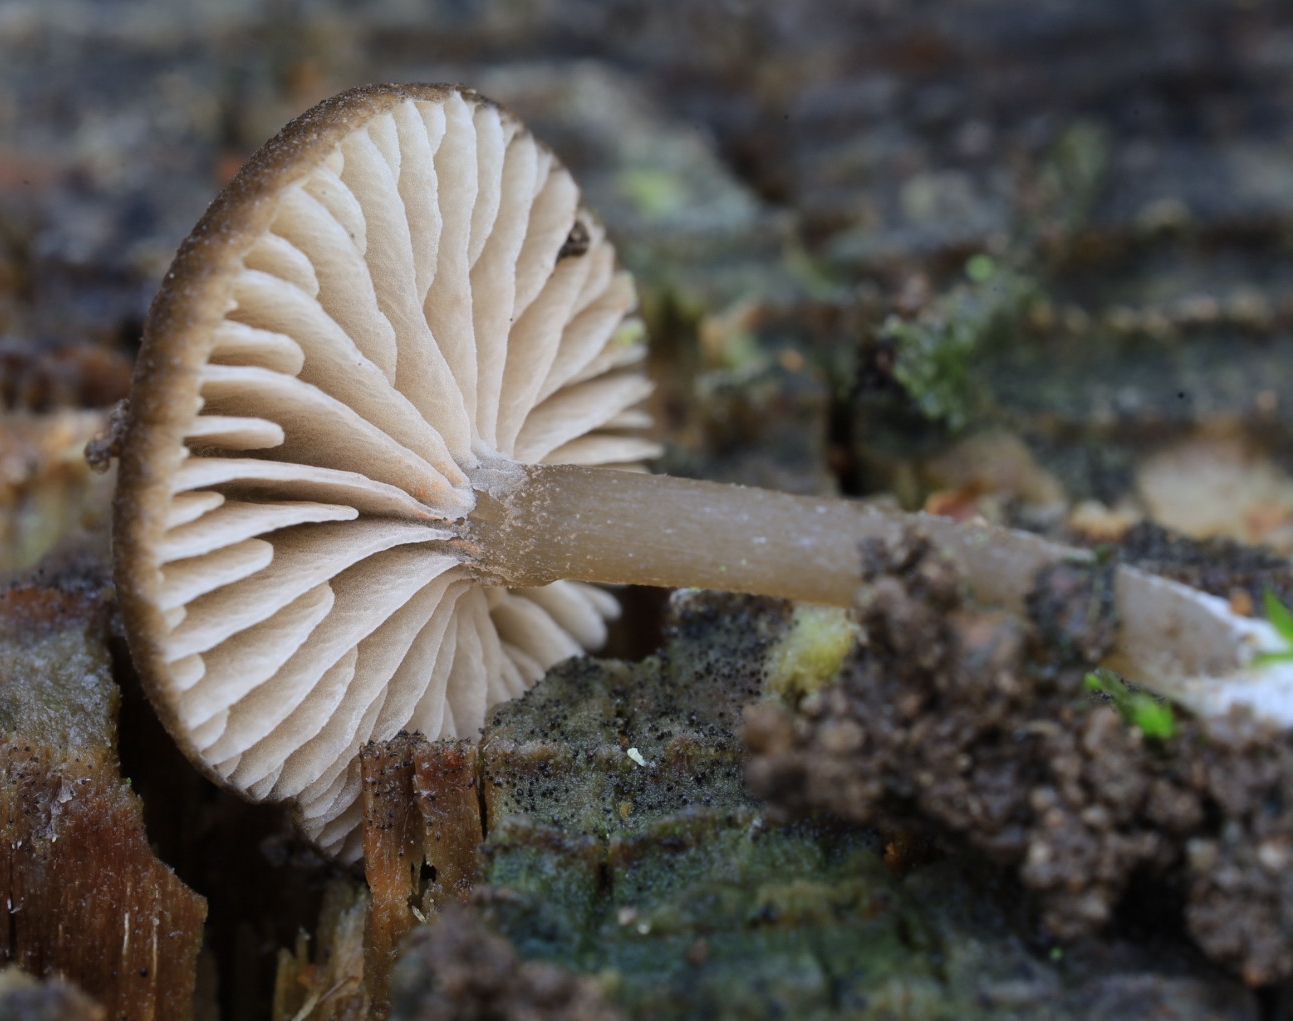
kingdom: Fungi
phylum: Basidiomycota
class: Agaricomycetes
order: Agaricales
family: Entolomataceae
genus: Entoloma
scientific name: Entoloma
